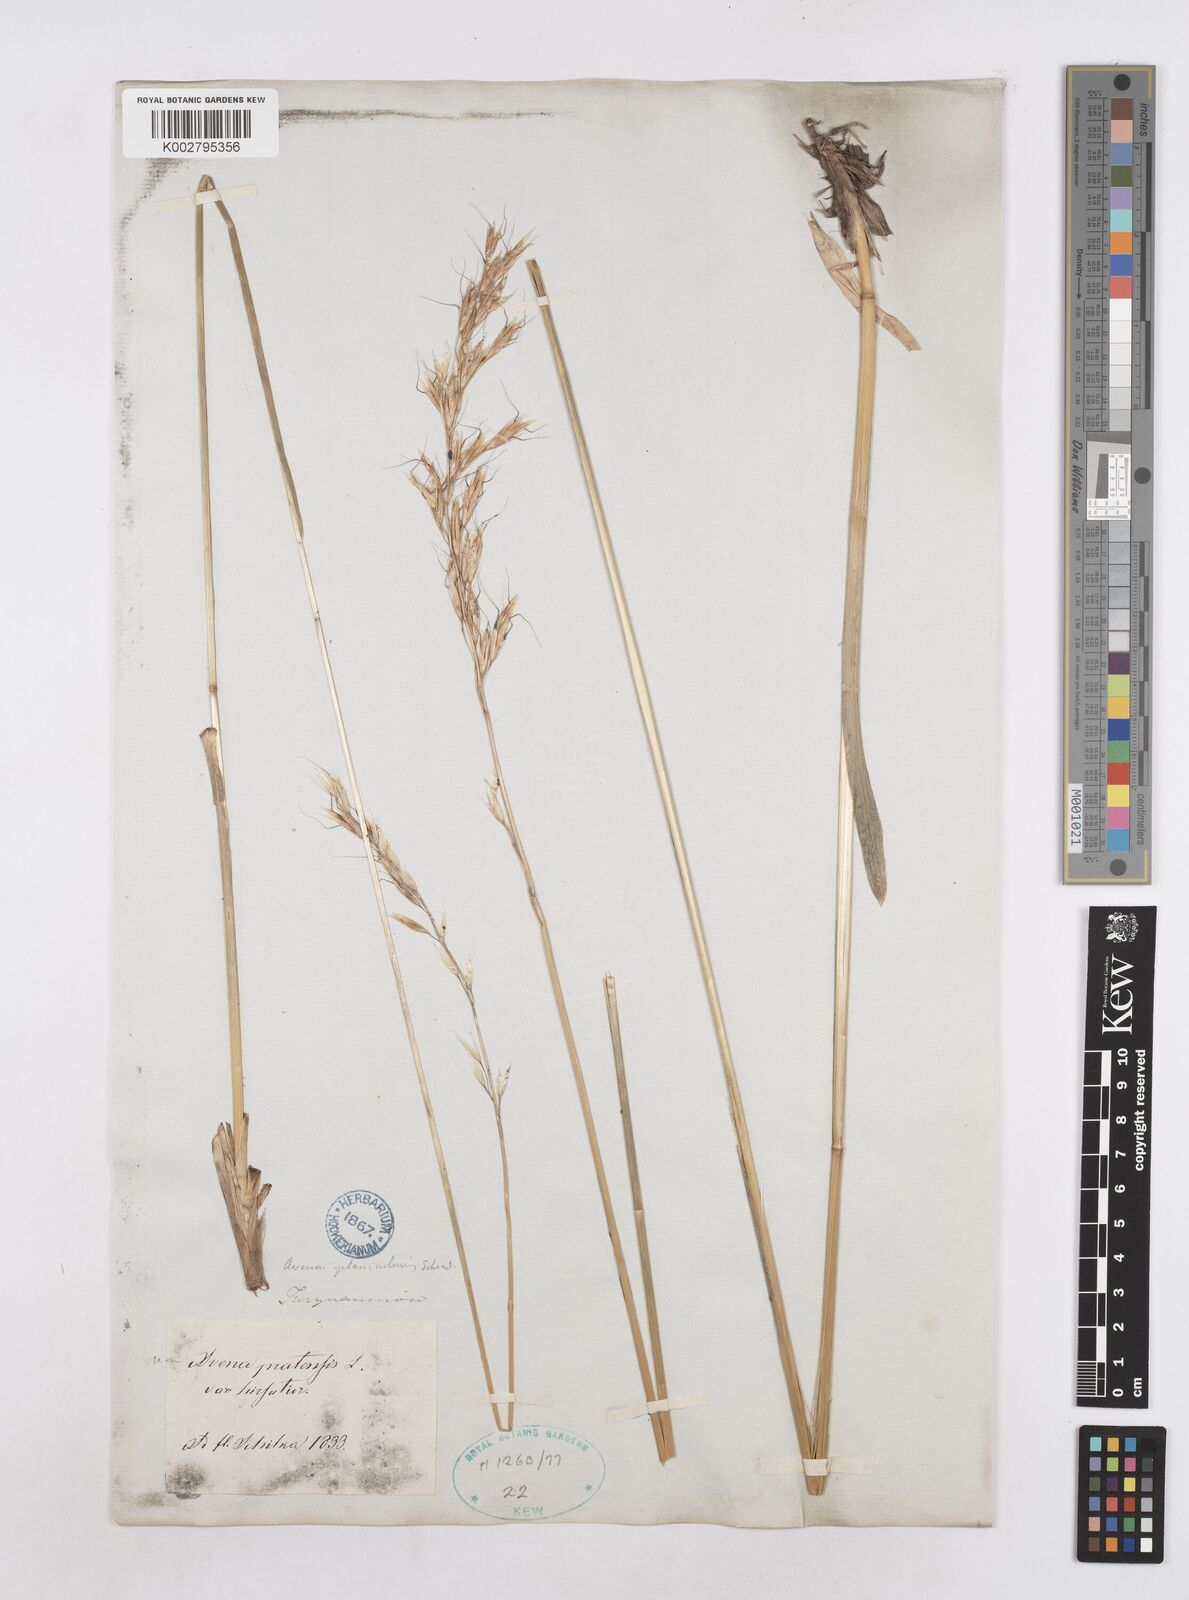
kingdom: Plantae
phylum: Tracheophyta
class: Liliopsida
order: Poales
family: Poaceae
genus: Helictochloa
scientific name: Helictochloa planiculmis
